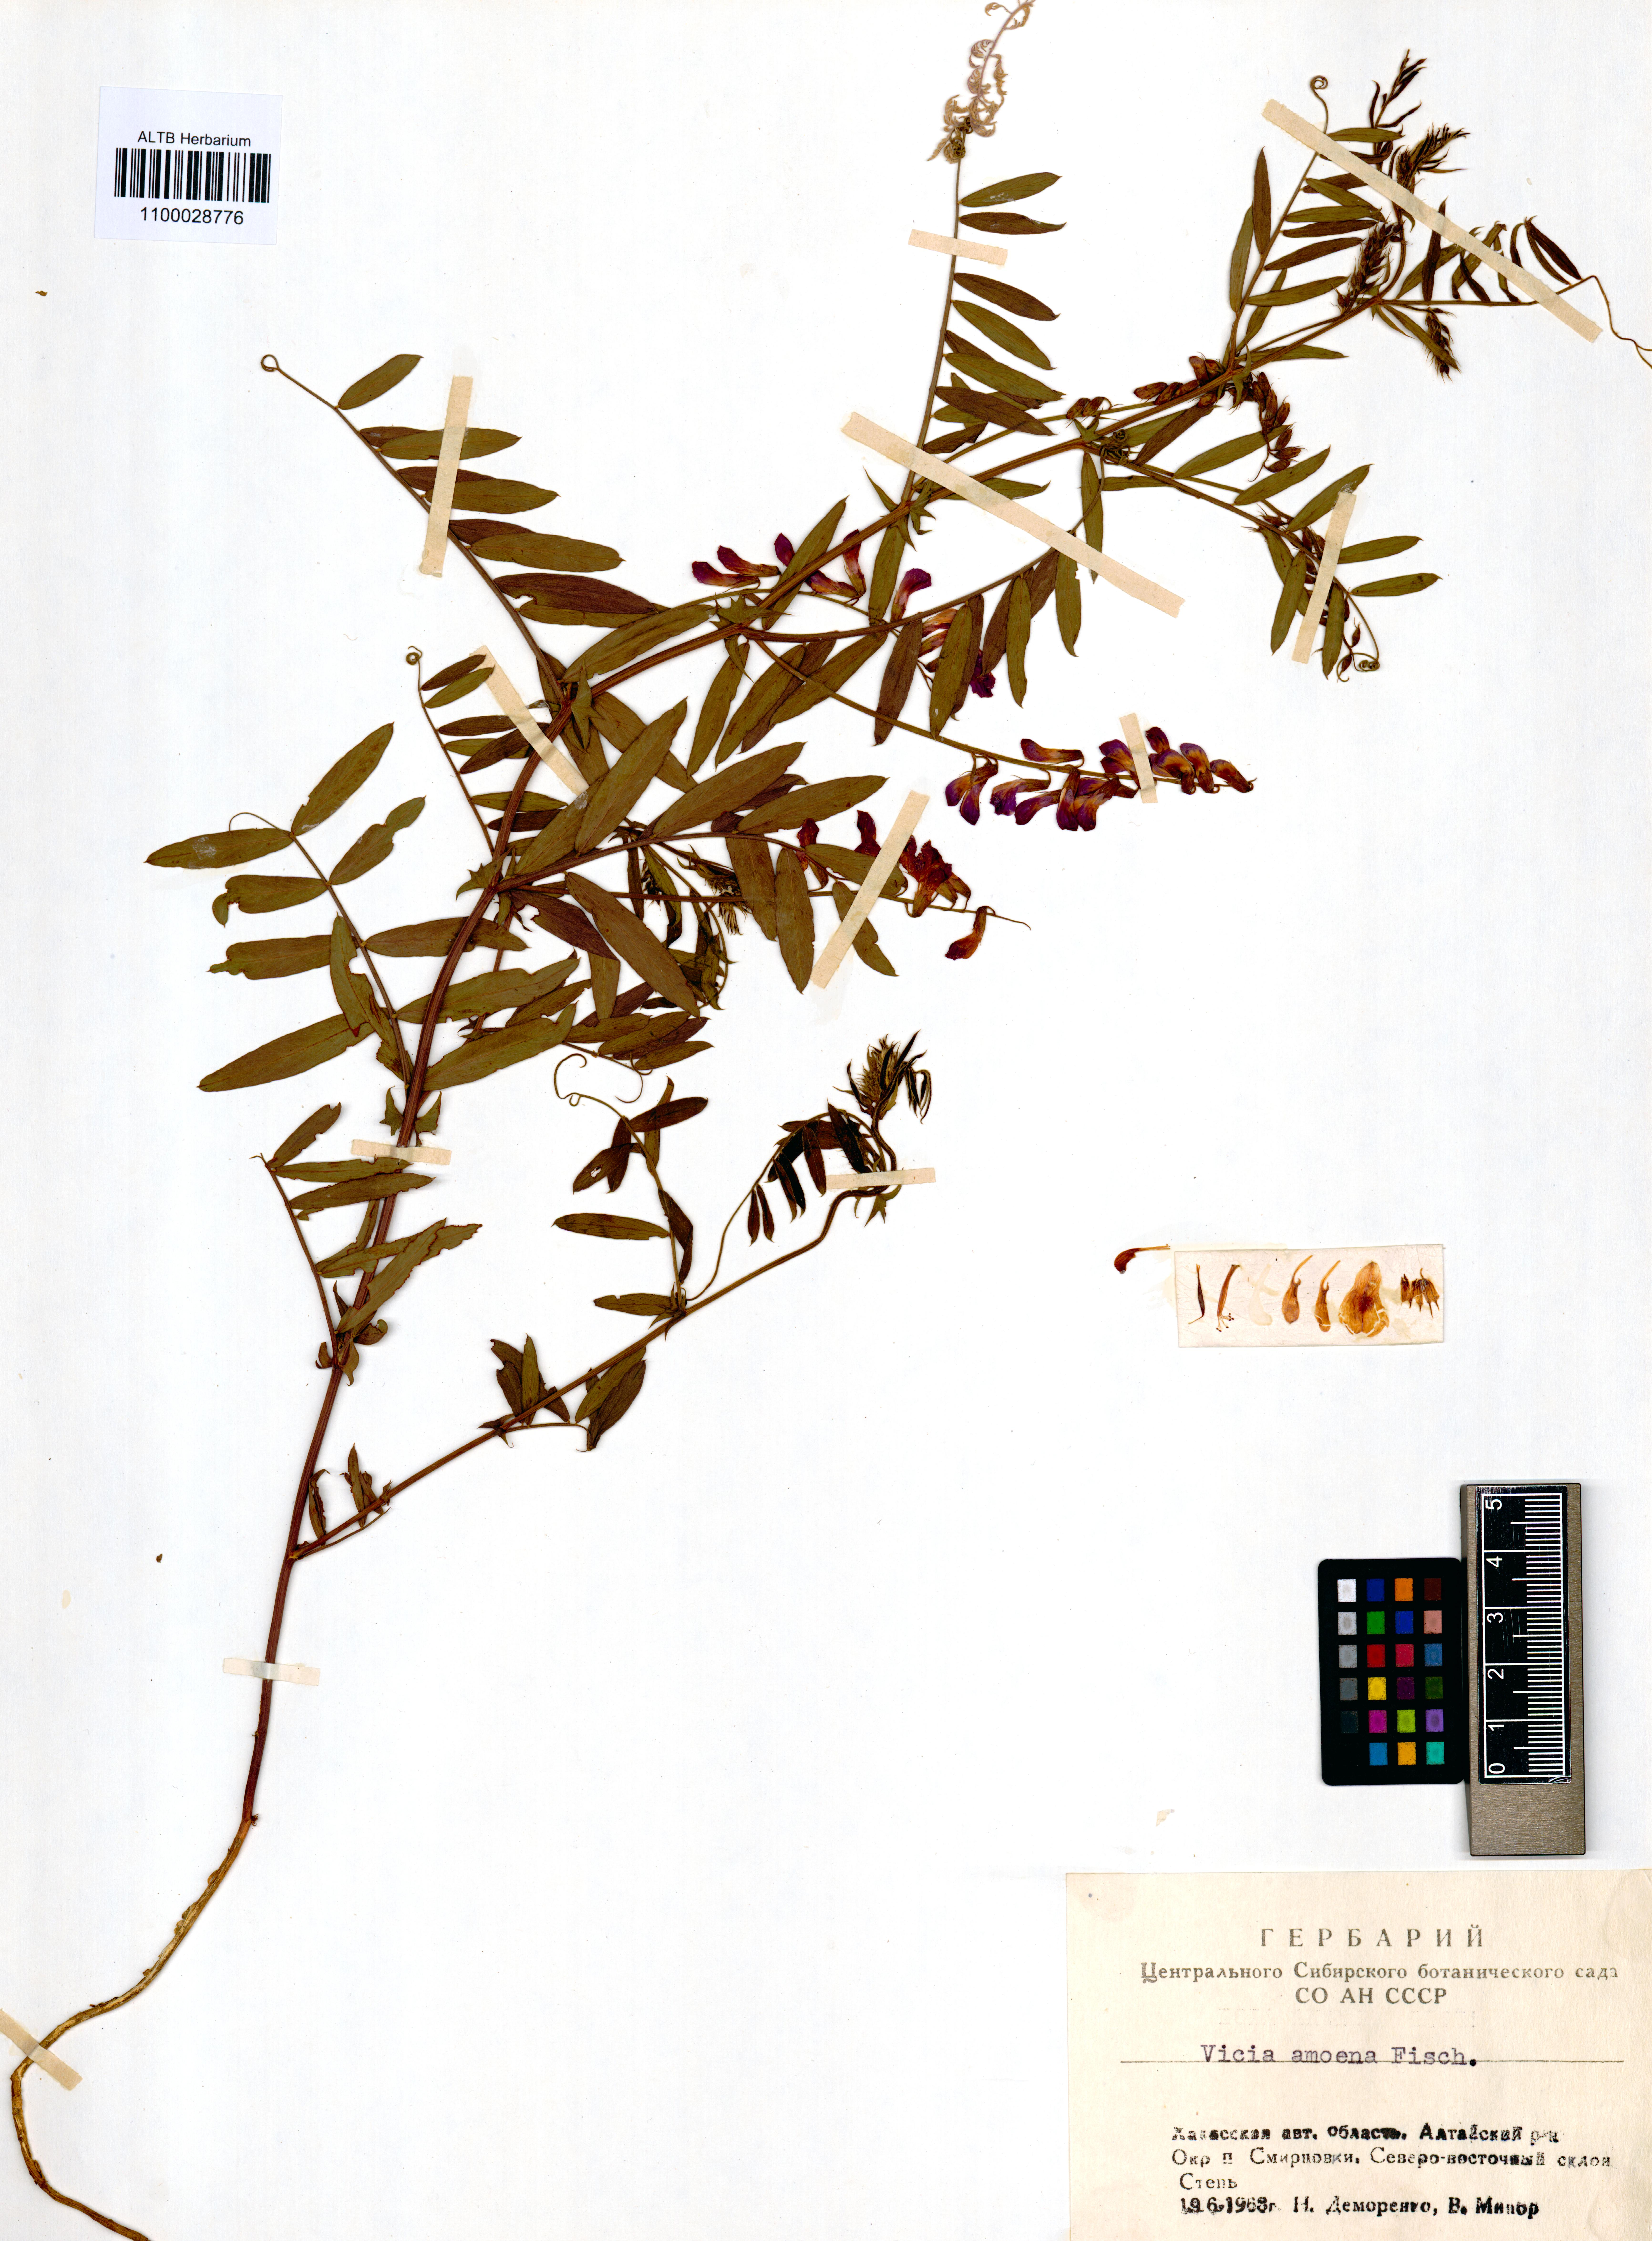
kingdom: Plantae
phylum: Tracheophyta
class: Magnoliopsida
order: Fabales
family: Fabaceae
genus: Vicia
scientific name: Vicia amoena
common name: Cheder ebs
